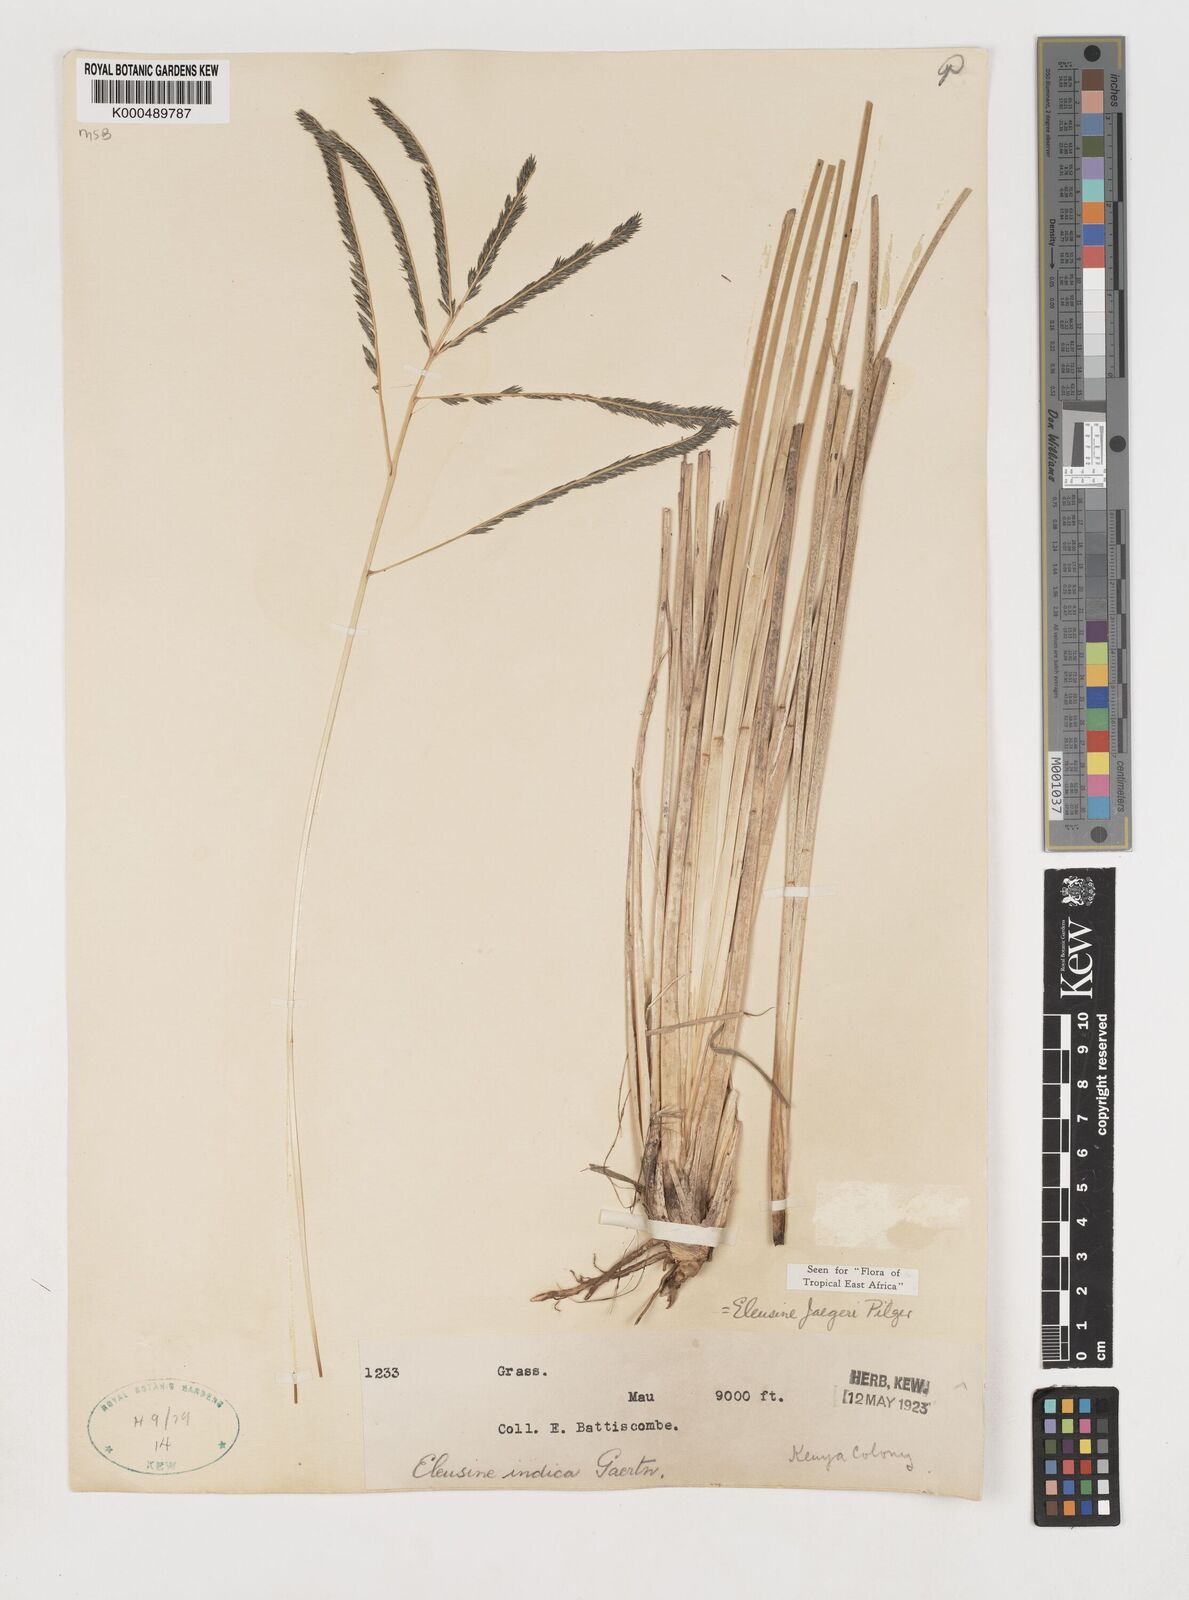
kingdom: Plantae
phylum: Tracheophyta
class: Liliopsida
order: Poales
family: Poaceae
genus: Eleusine
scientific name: Eleusine jaegeri
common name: Manyatta grass
